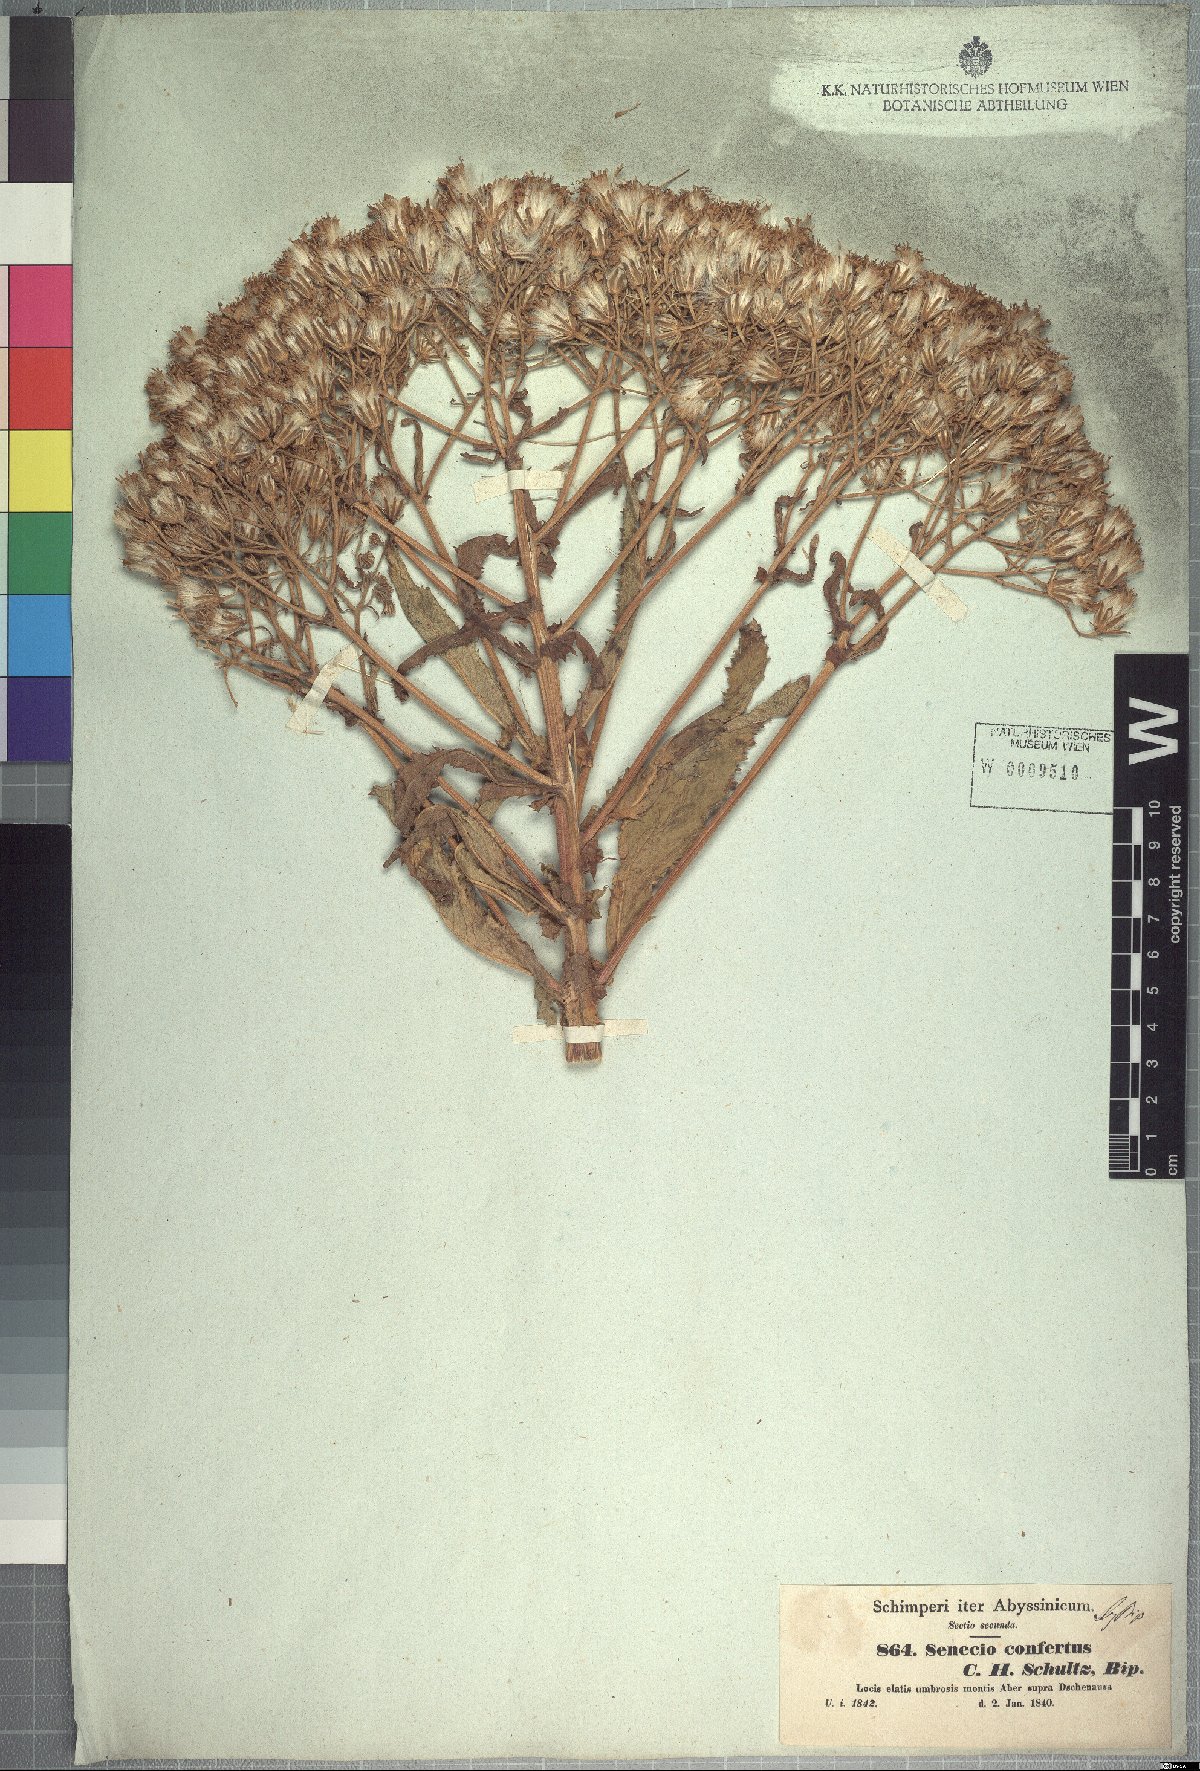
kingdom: Plantae
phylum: Tracheophyta
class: Magnoliopsida
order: Asterales
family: Asteraceae
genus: Senecio
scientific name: Senecio confertus
